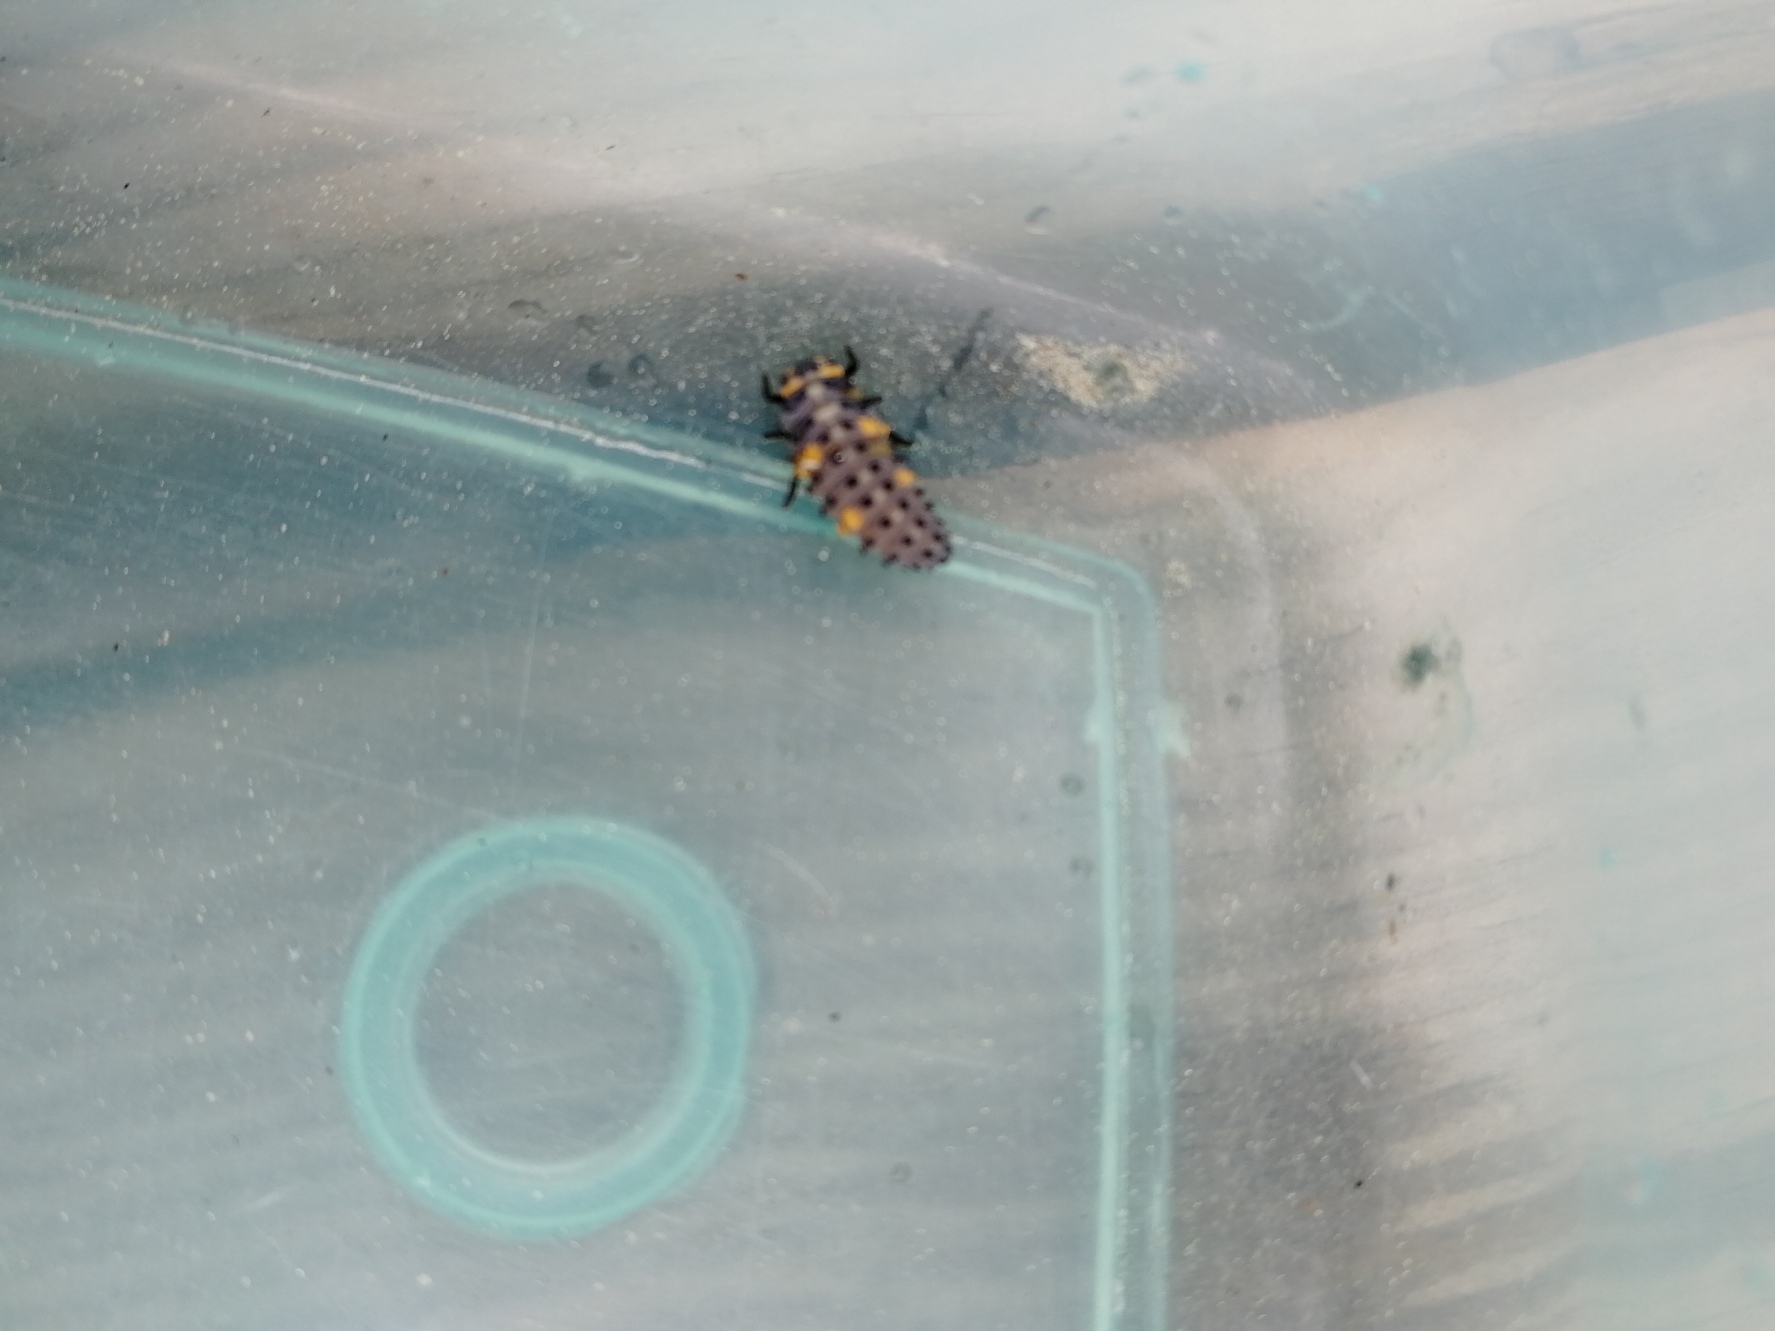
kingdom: Animalia
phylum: Arthropoda
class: Insecta
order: Coleoptera
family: Coccinellidae
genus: Coccinella
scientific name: Coccinella septempunctata
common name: Syvplettet mariehøne
